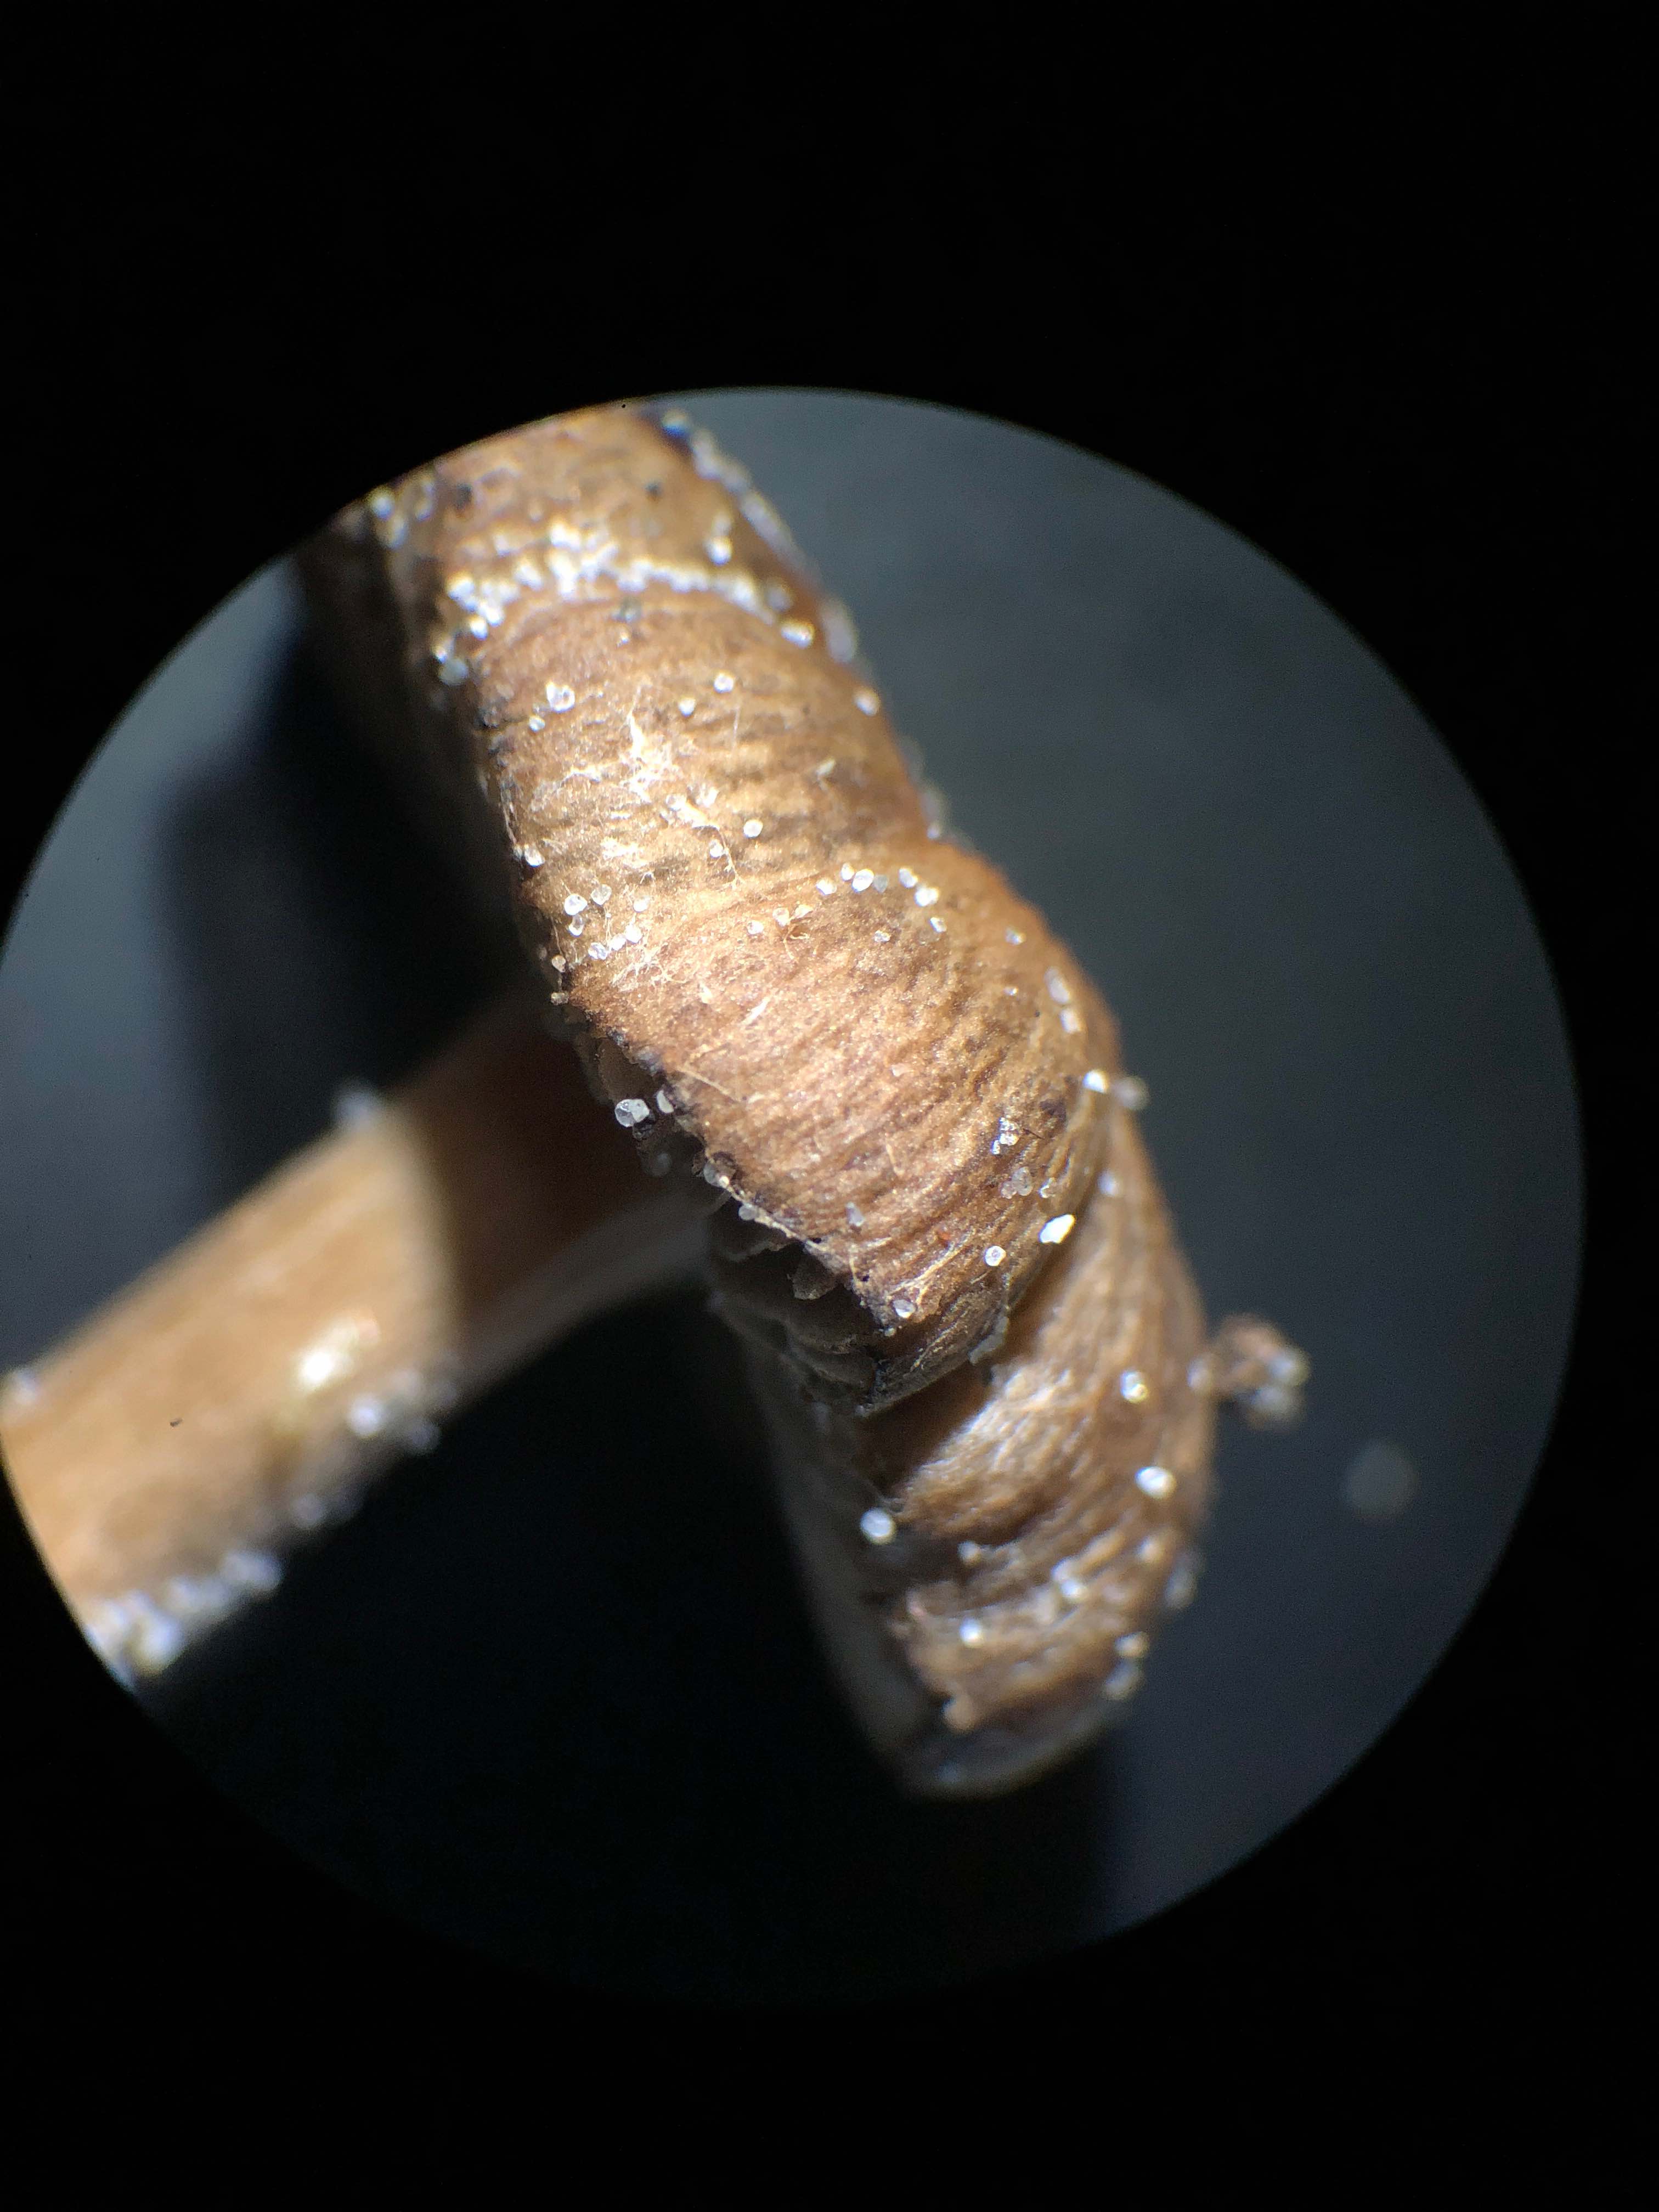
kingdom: Fungi
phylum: Basidiomycota
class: Agaricomycetes
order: Agaricales
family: Psathyrellaceae
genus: Psathyrella
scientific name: Psathyrella ammophila
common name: klit-mørkhat
